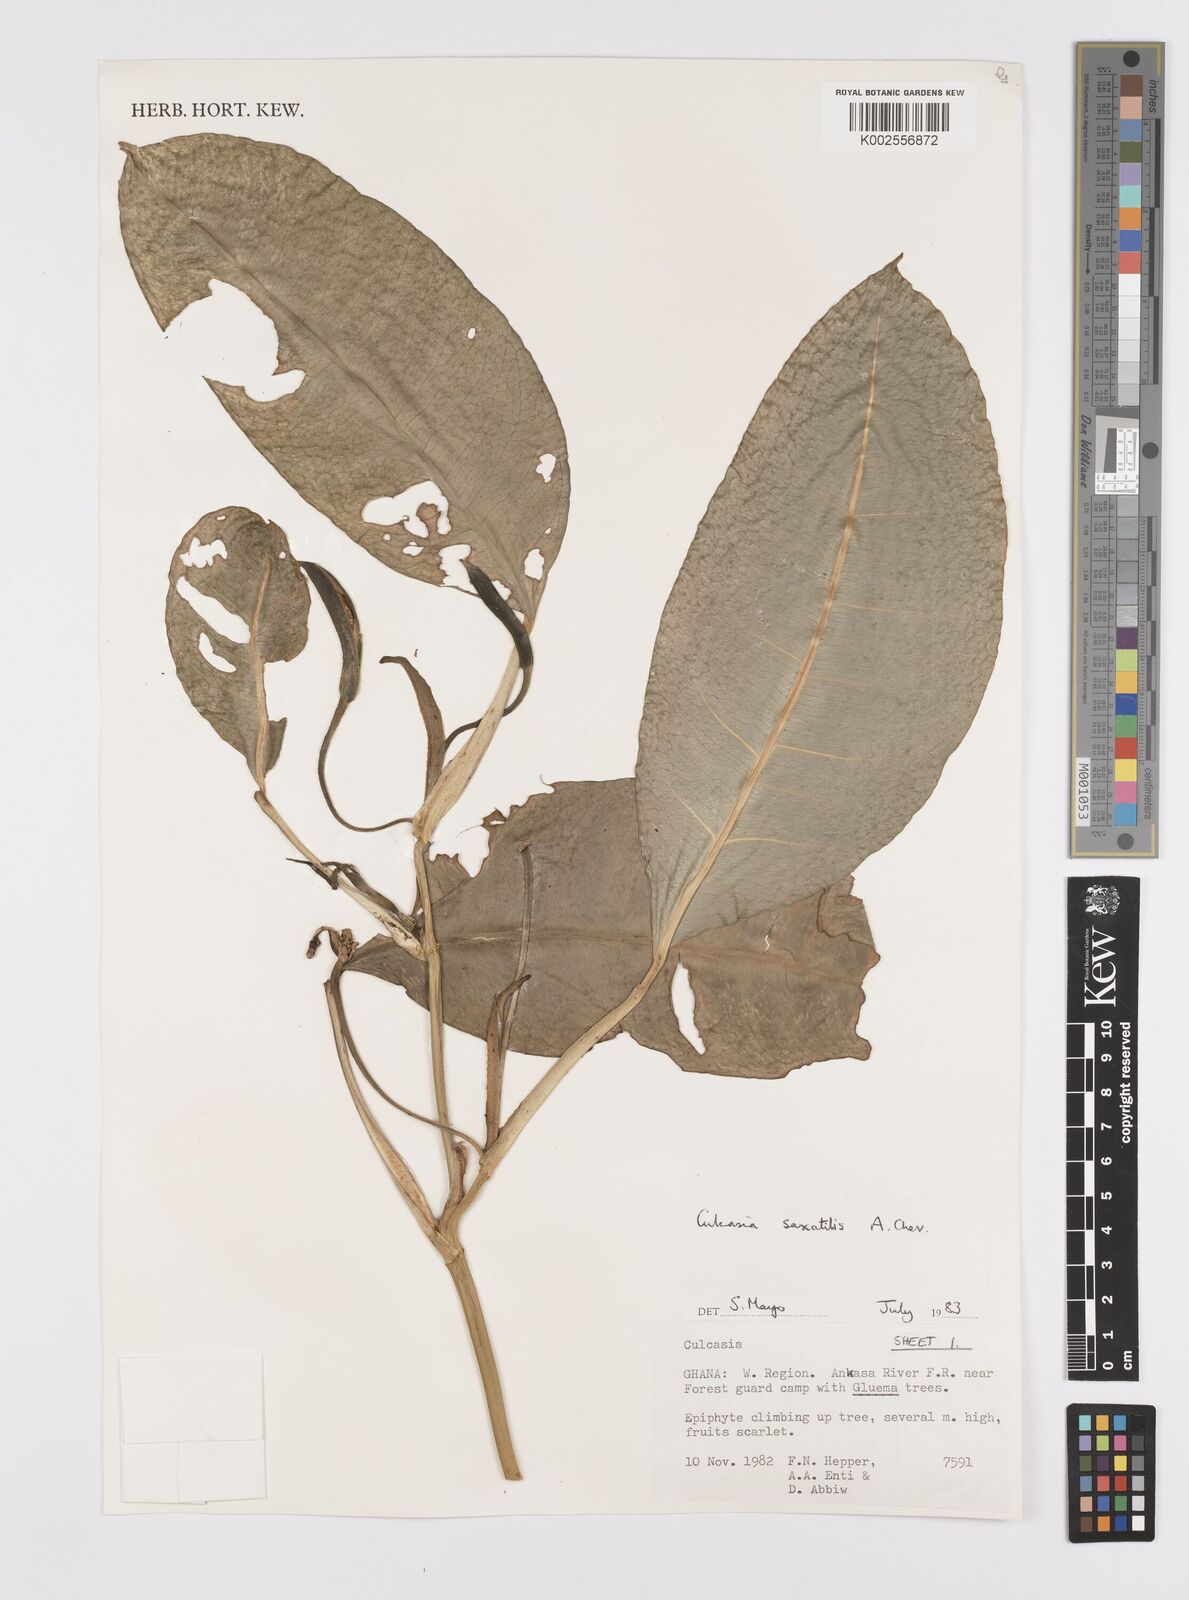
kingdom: Plantae
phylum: Tracheophyta
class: Liliopsida
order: Alismatales
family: Araceae
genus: Culcasia
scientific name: Culcasia scandens
